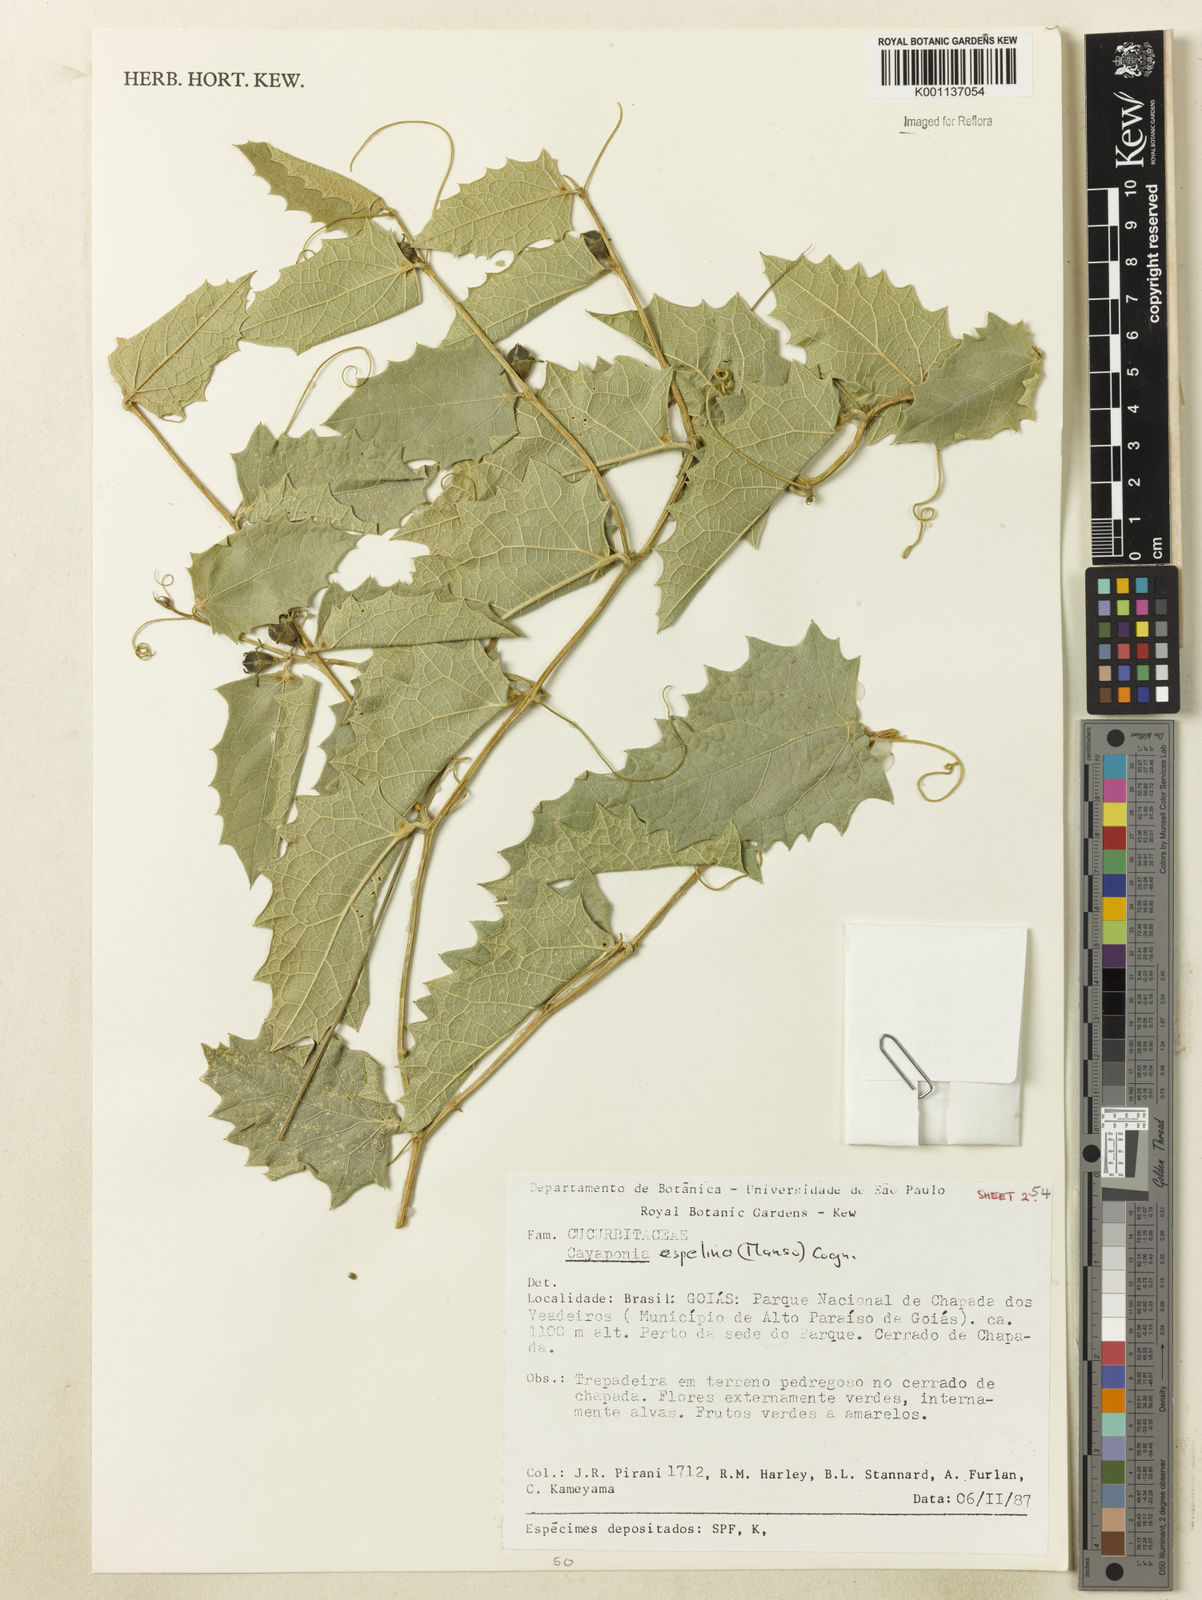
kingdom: Plantae
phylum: Tracheophyta
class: Magnoliopsida
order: Cucurbitales
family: Cucurbitaceae
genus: Cayaponia
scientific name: Cayaponia espelina
